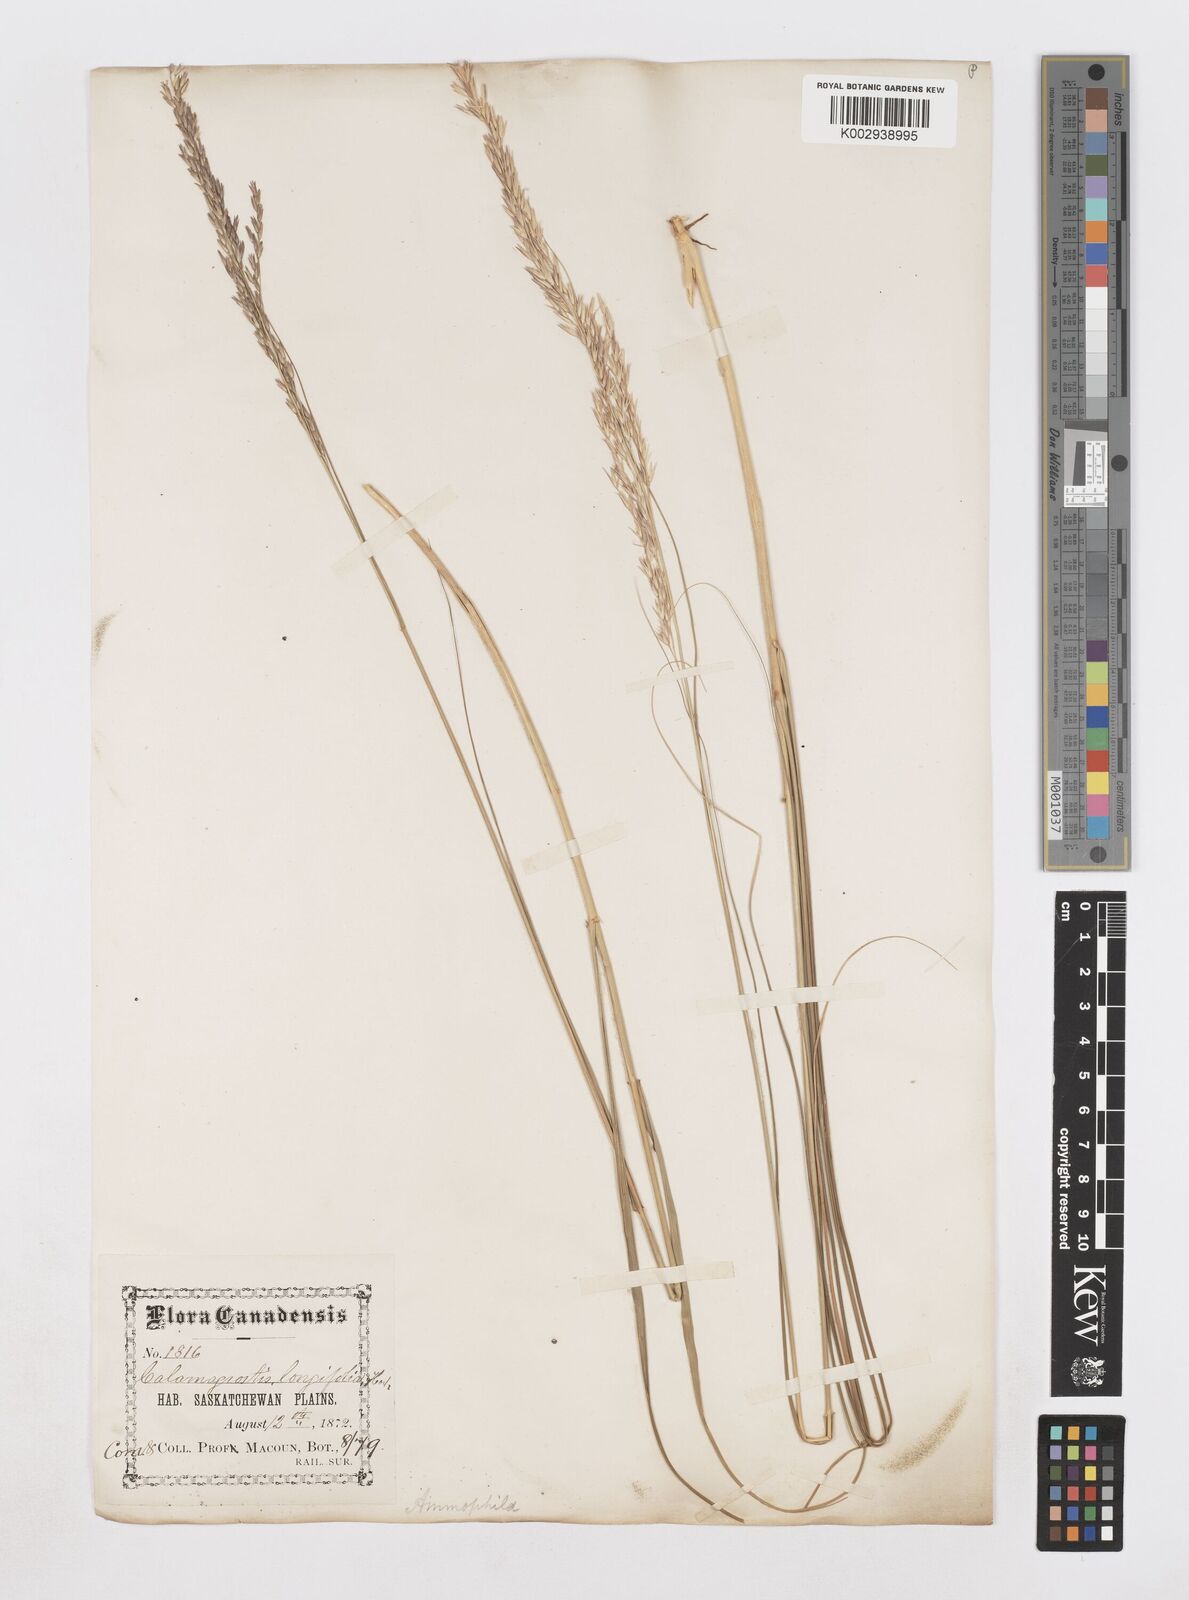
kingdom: Plantae
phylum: Tracheophyta
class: Liliopsida
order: Poales
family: Poaceae
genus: Sporobolus
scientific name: Sporobolus rigidus
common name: Prairie sandreed
